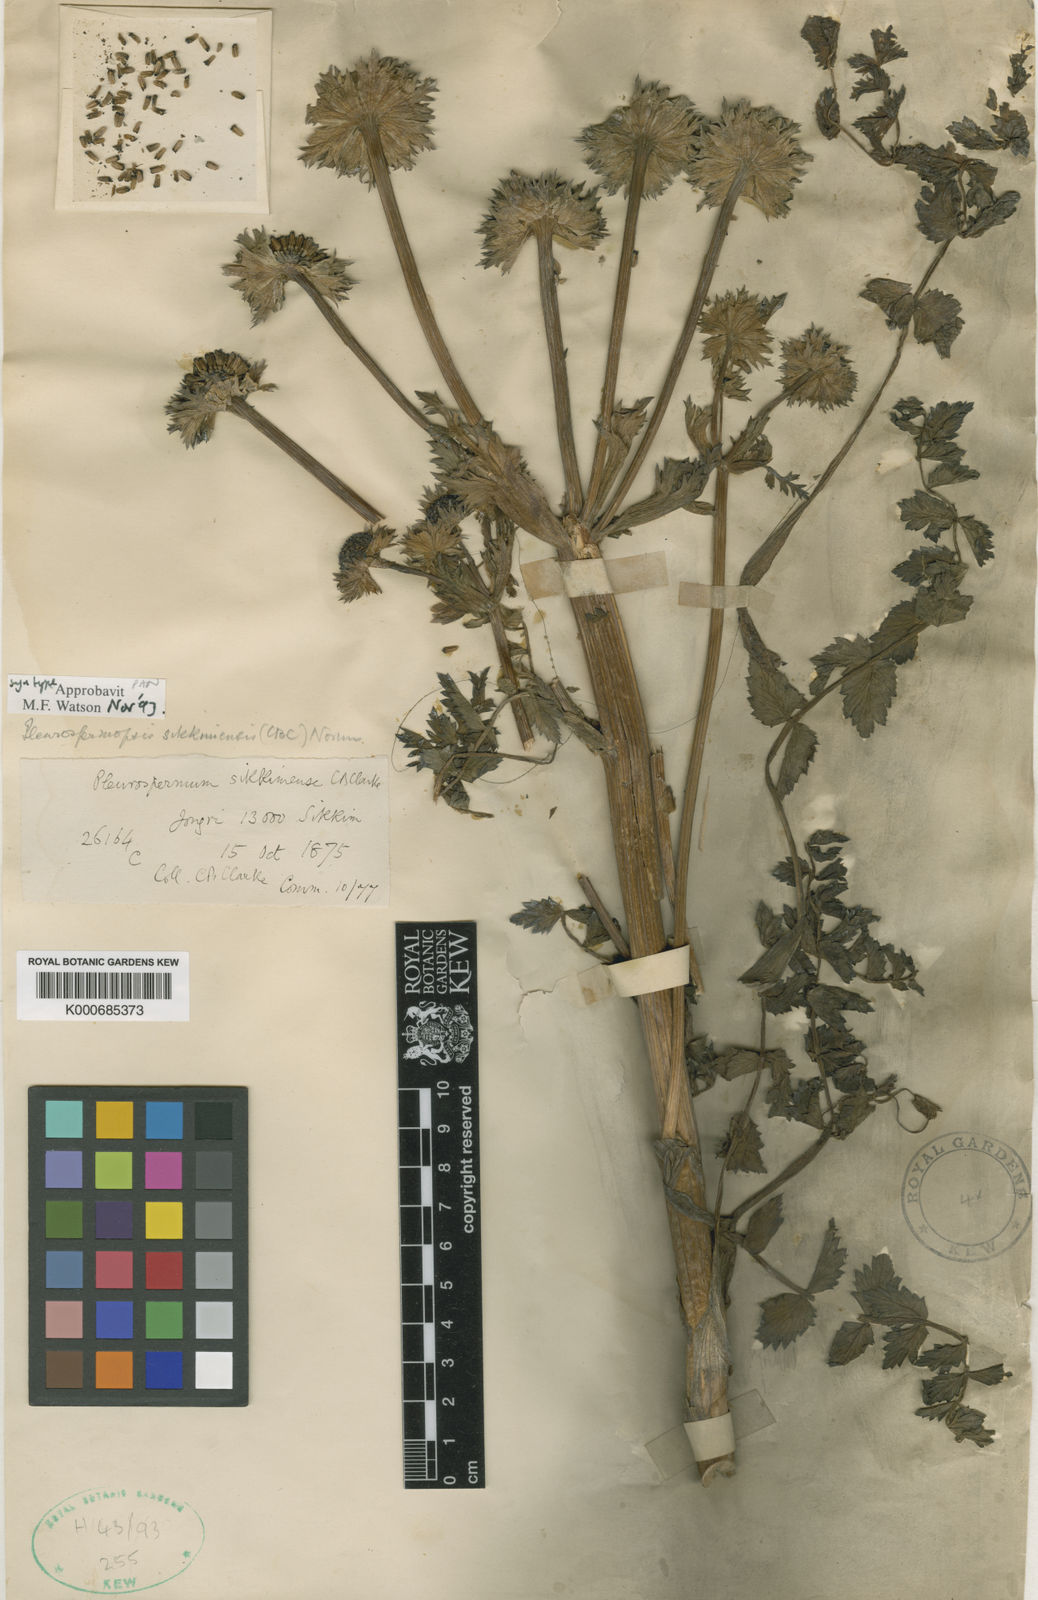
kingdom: Plantae
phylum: Tracheophyta
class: Magnoliopsida
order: Apiales
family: Apiaceae
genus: Pleurospermopsis
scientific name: Pleurospermopsis sikkimensis
